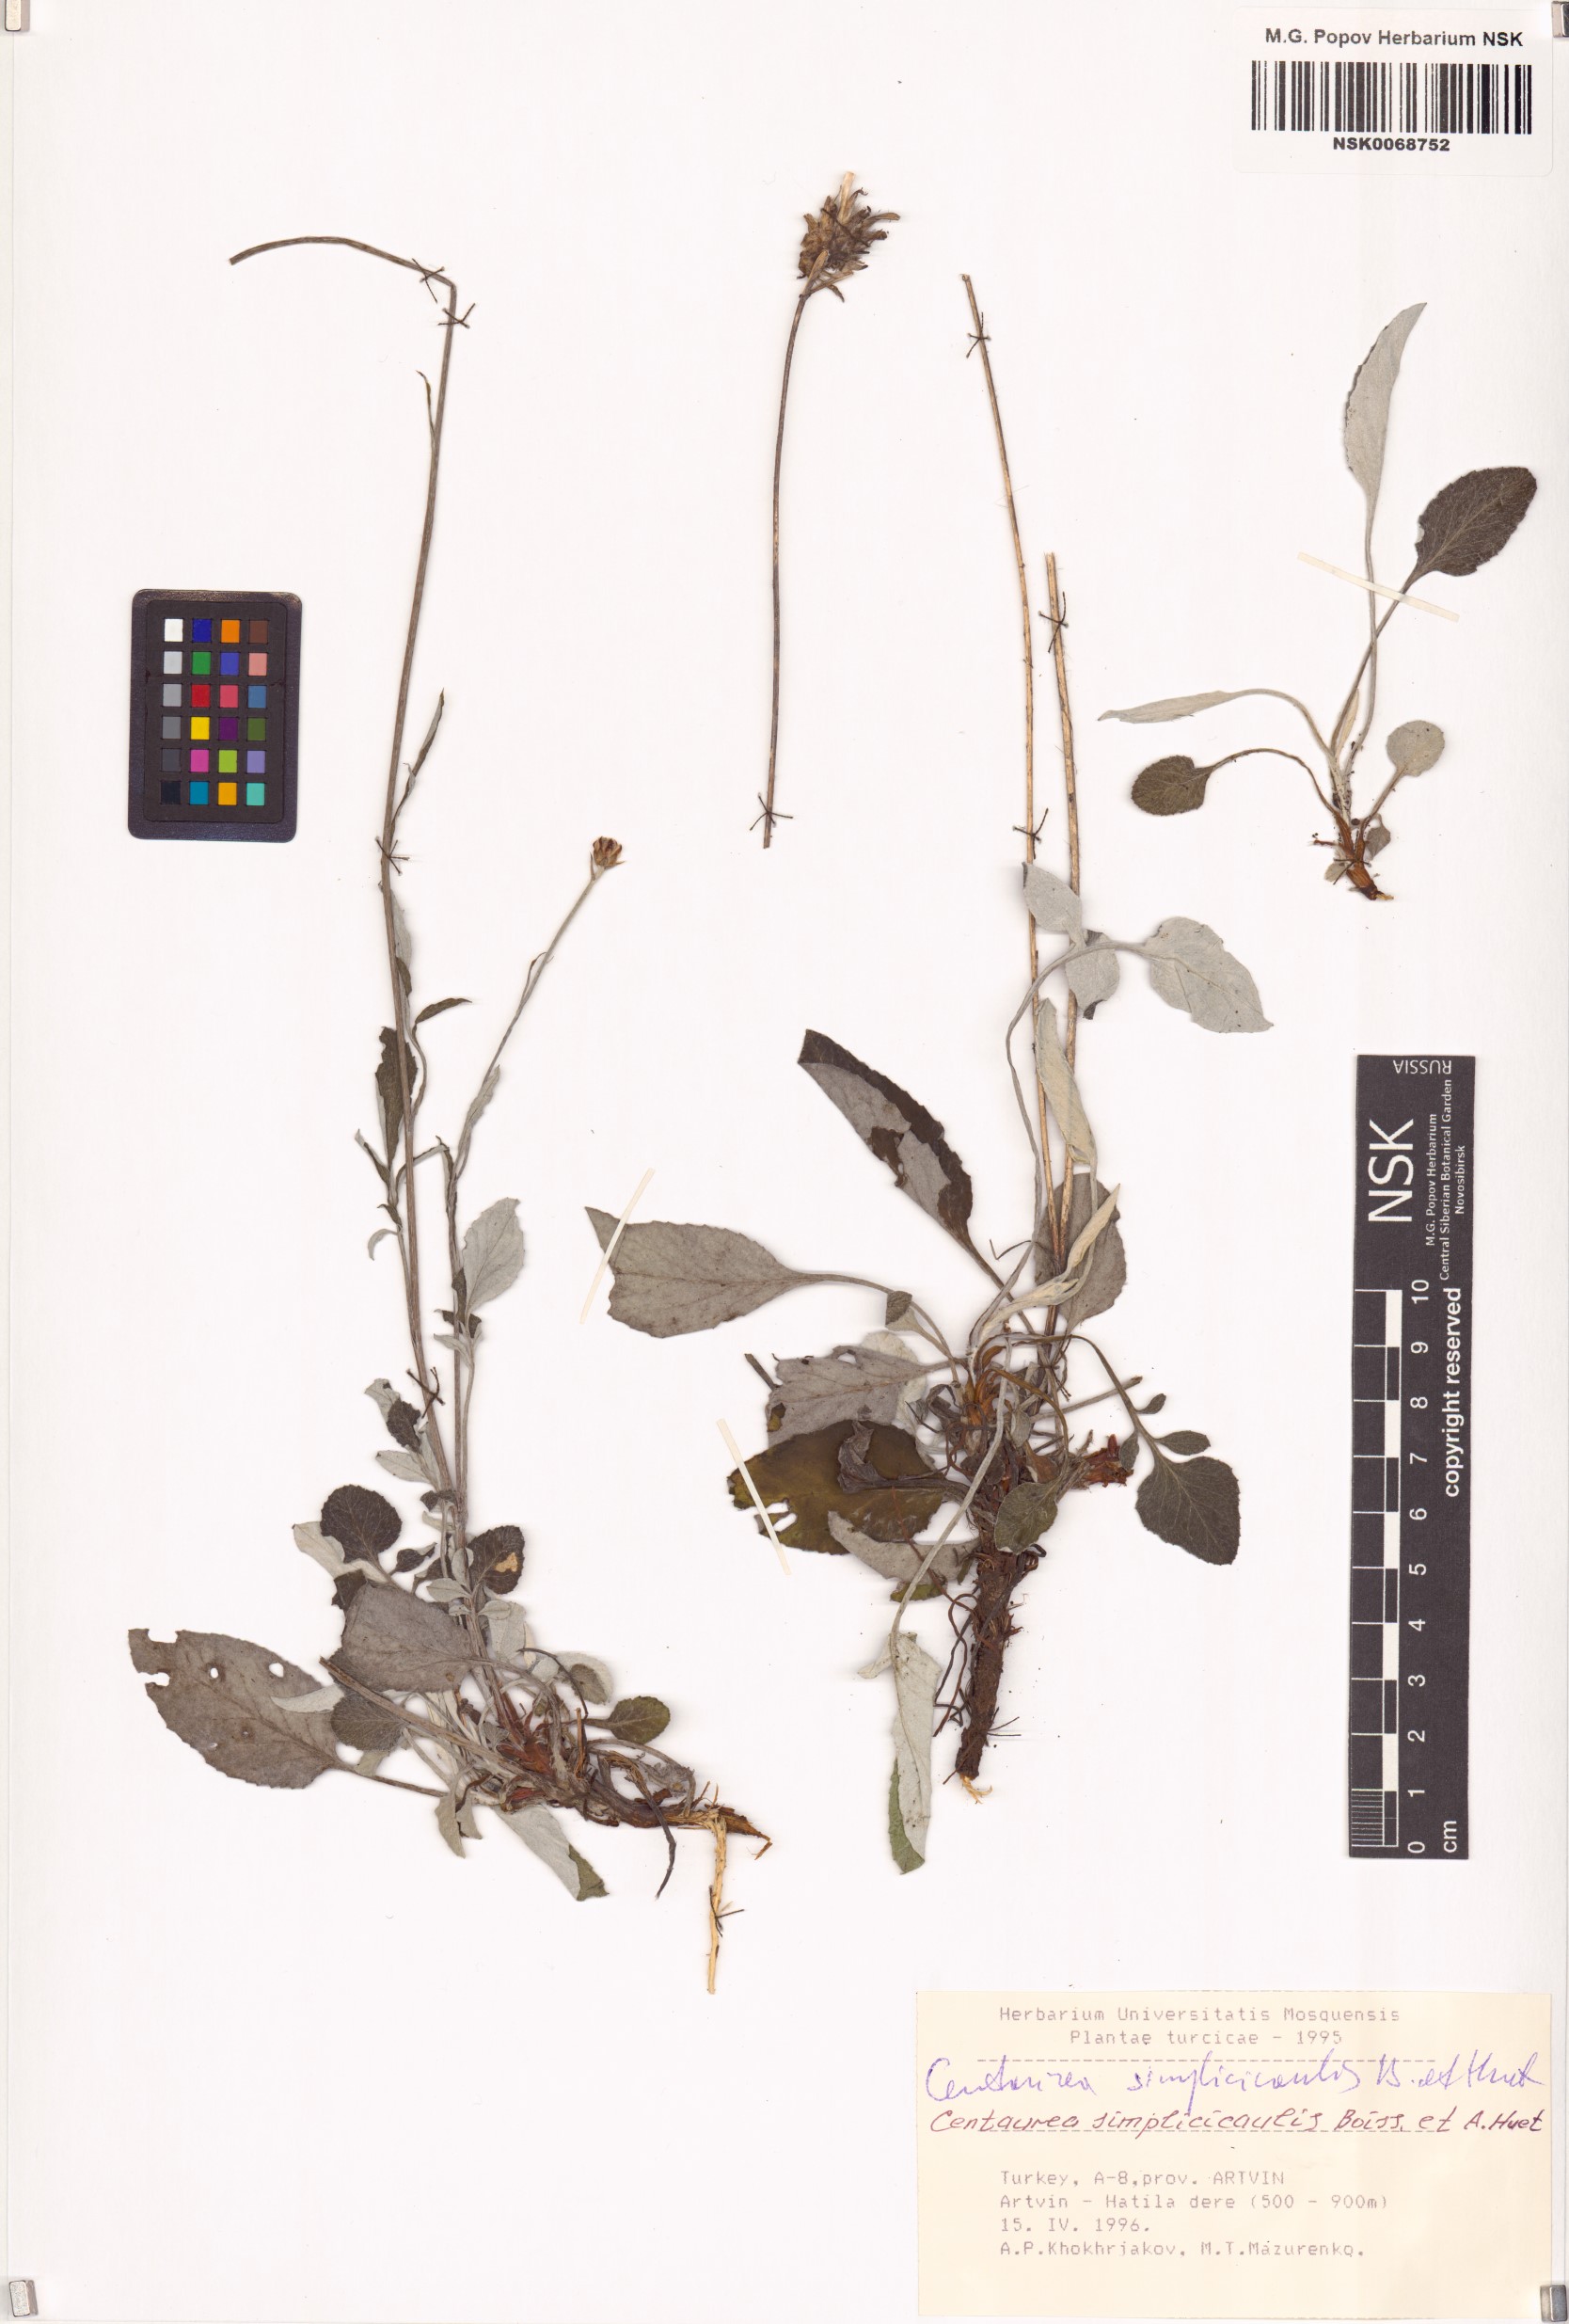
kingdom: Plantae
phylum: Tracheophyta
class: Magnoliopsida
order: Asterales
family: Asteraceae
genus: Psephellus
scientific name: Psephellus simplicicaulis
